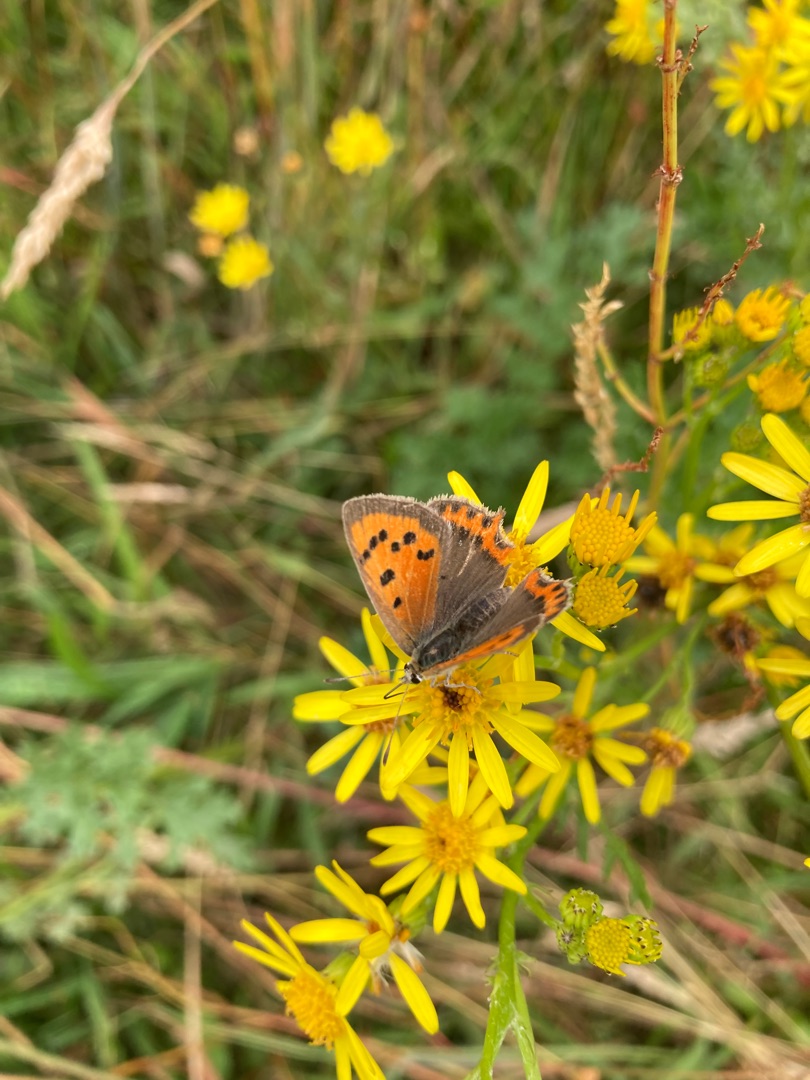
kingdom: Animalia
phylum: Arthropoda
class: Insecta
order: Lepidoptera
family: Lycaenidae
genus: Lycaena
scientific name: Lycaena phlaeas
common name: Lille ildfugl
